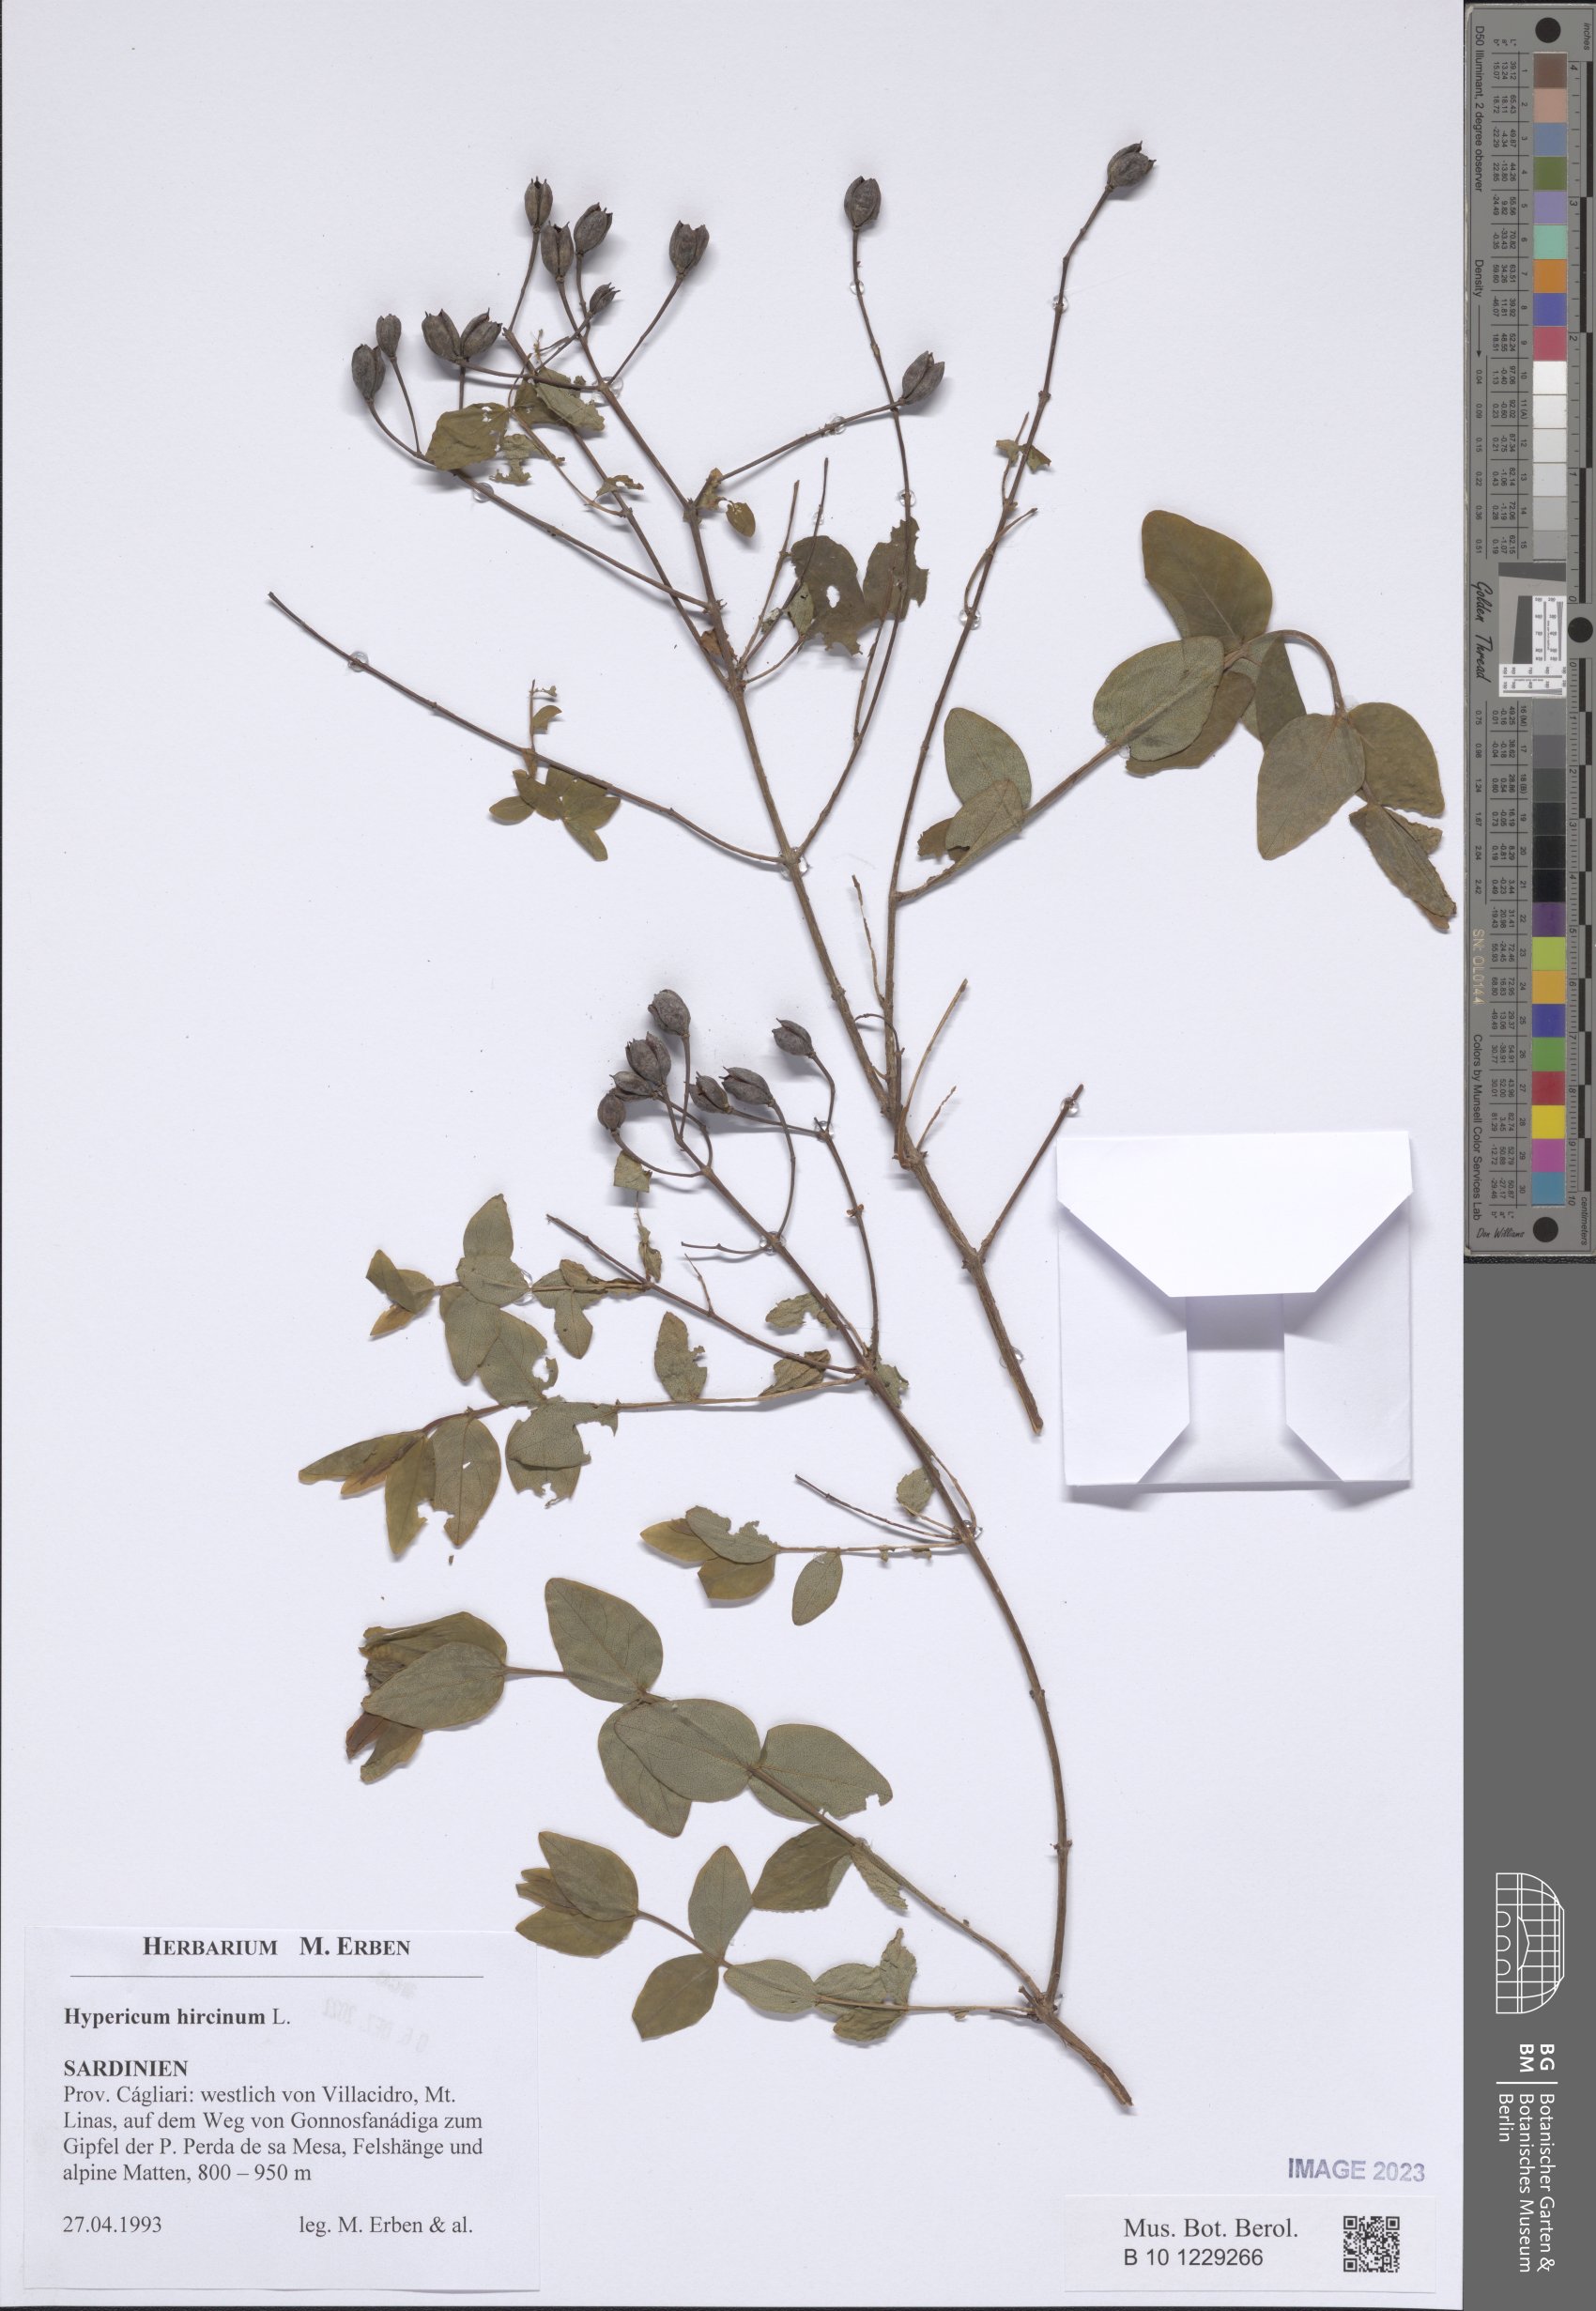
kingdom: Plantae
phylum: Tracheophyta
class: Magnoliopsida
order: Malpighiales
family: Hypericaceae
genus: Hypericum
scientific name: Hypericum hircinum
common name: Stinking tutsan
